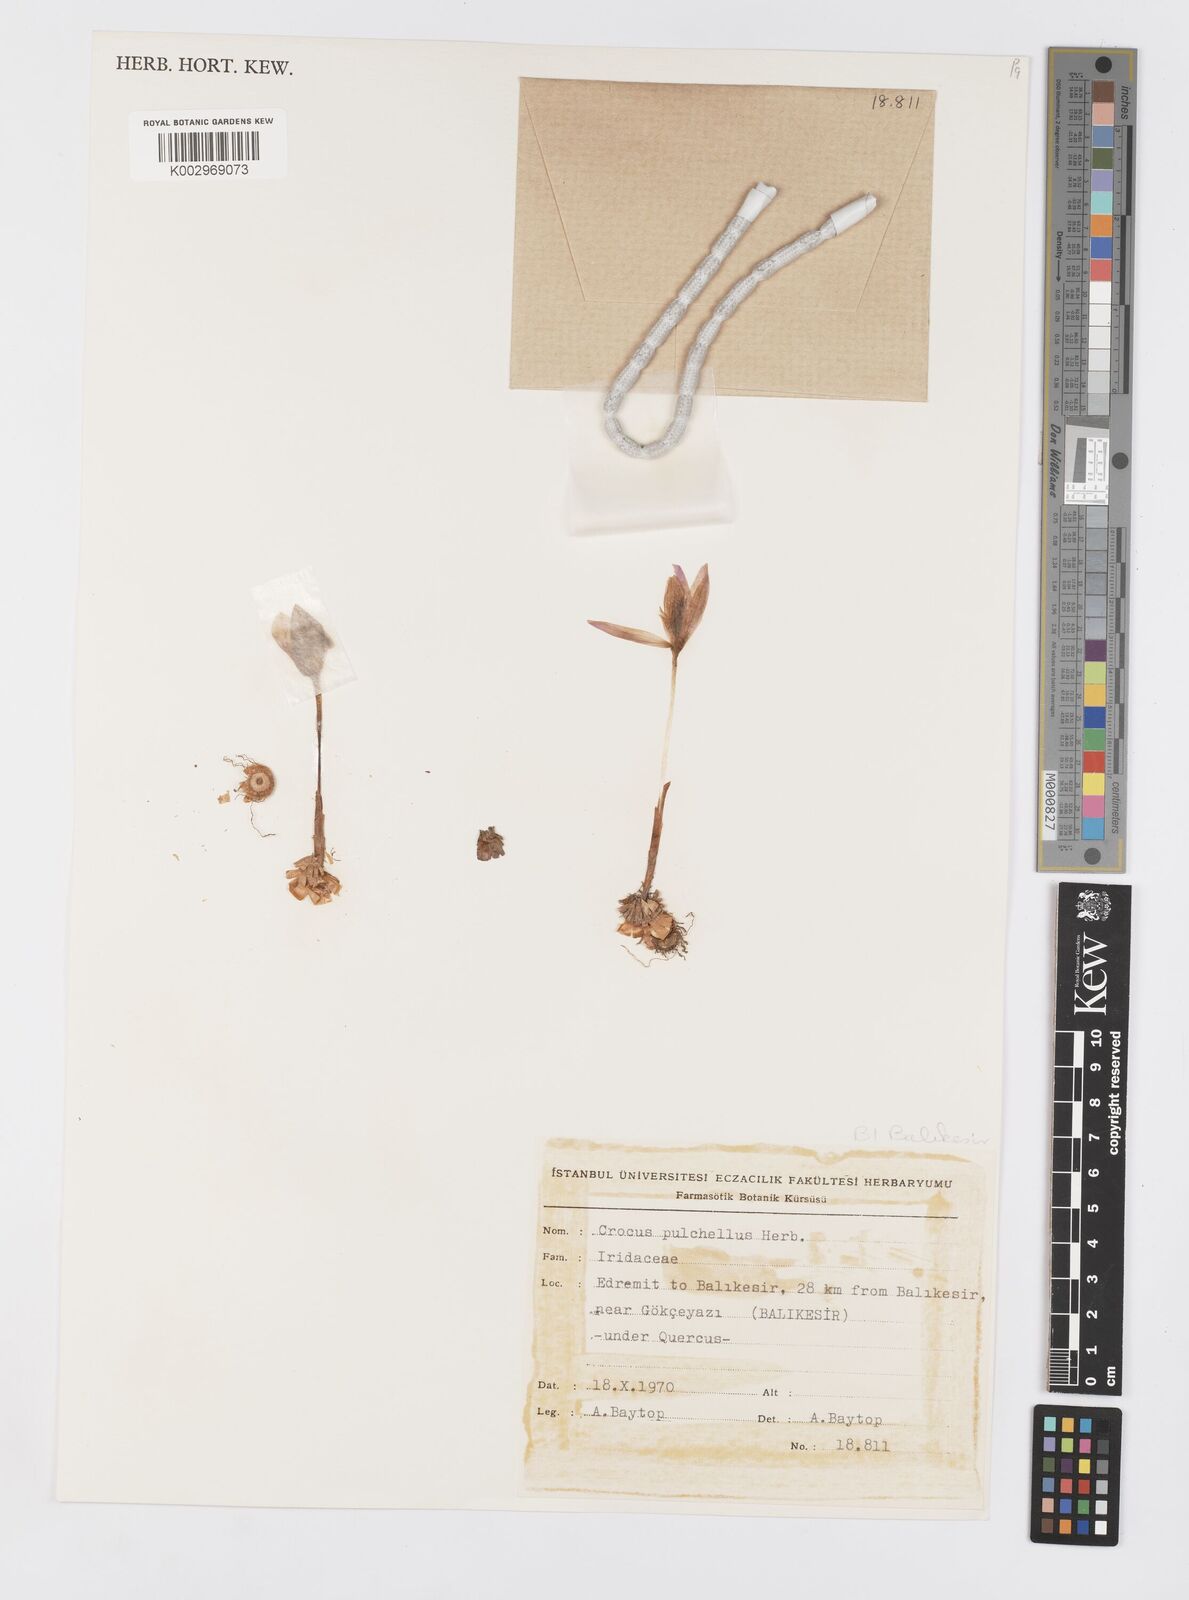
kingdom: Plantae
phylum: Tracheophyta
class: Liliopsida
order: Asparagales
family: Iridaceae
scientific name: Iridaceae
